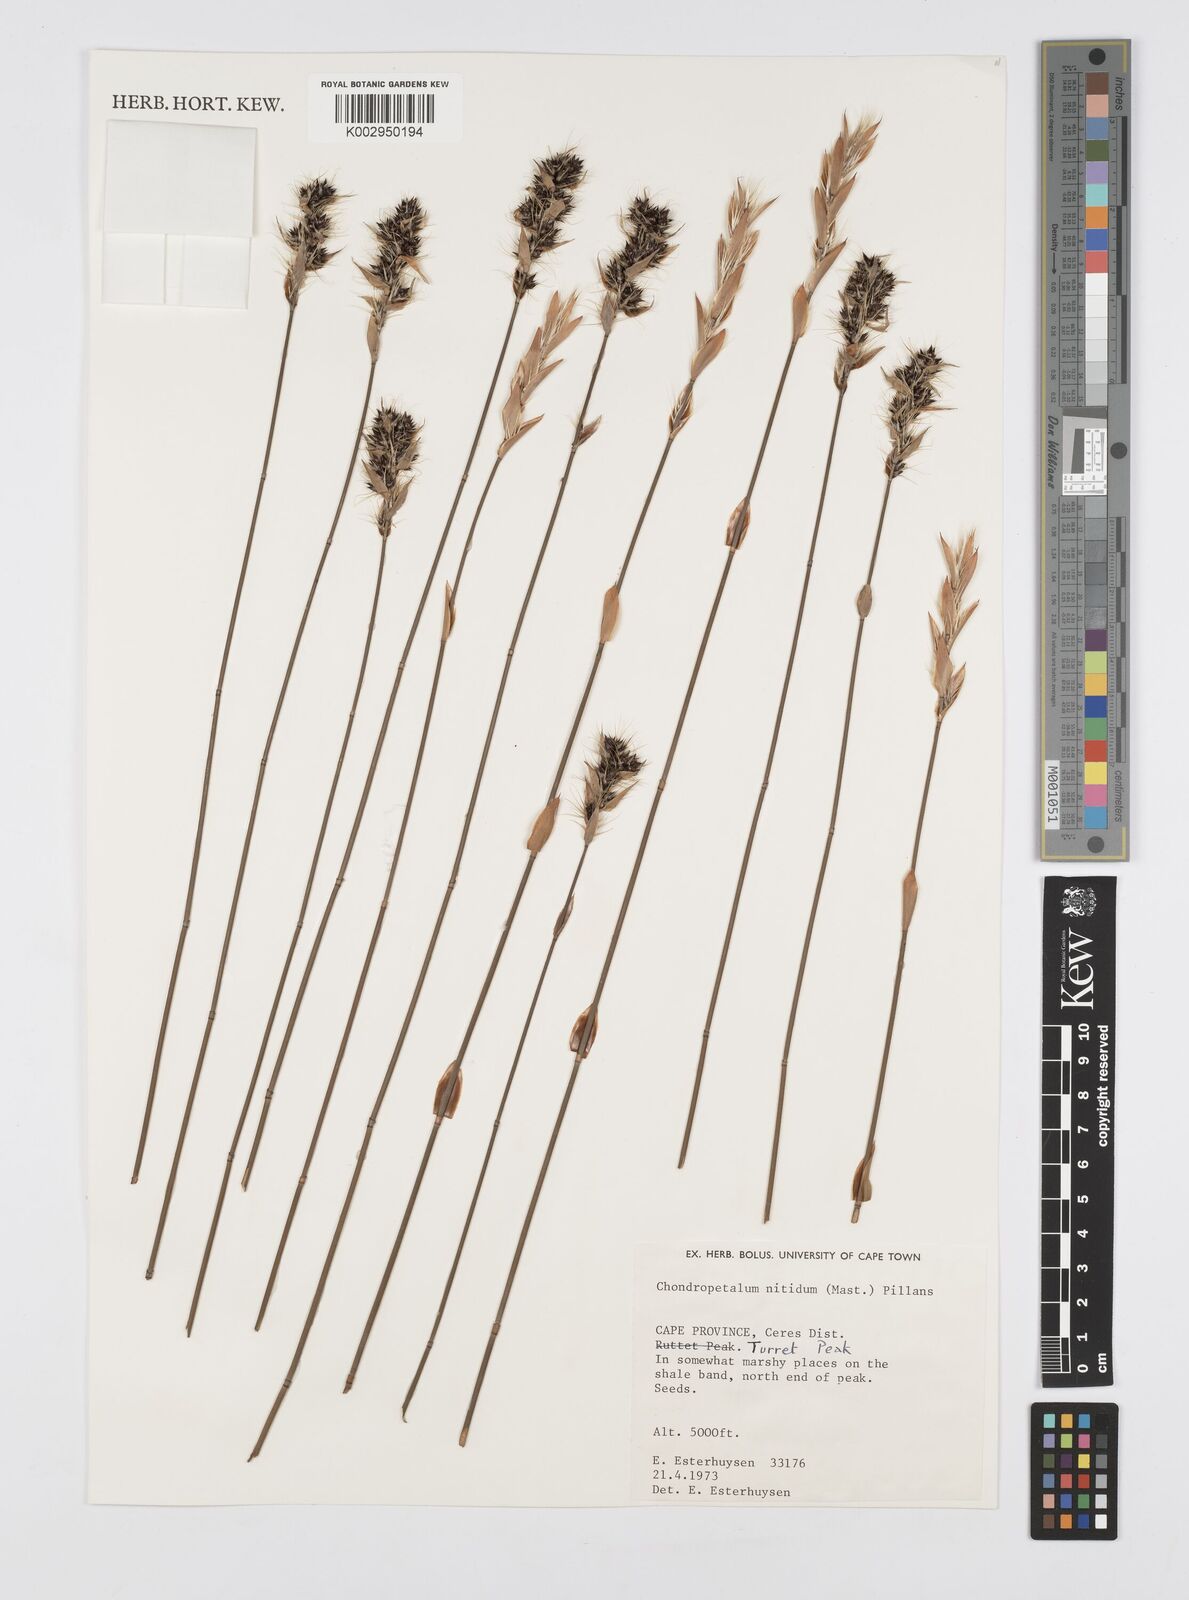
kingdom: Plantae
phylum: Tracheophyta
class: Liliopsida
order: Poales
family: Restionaceae
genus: Askidiosperma
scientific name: Askidiosperma nitidum
